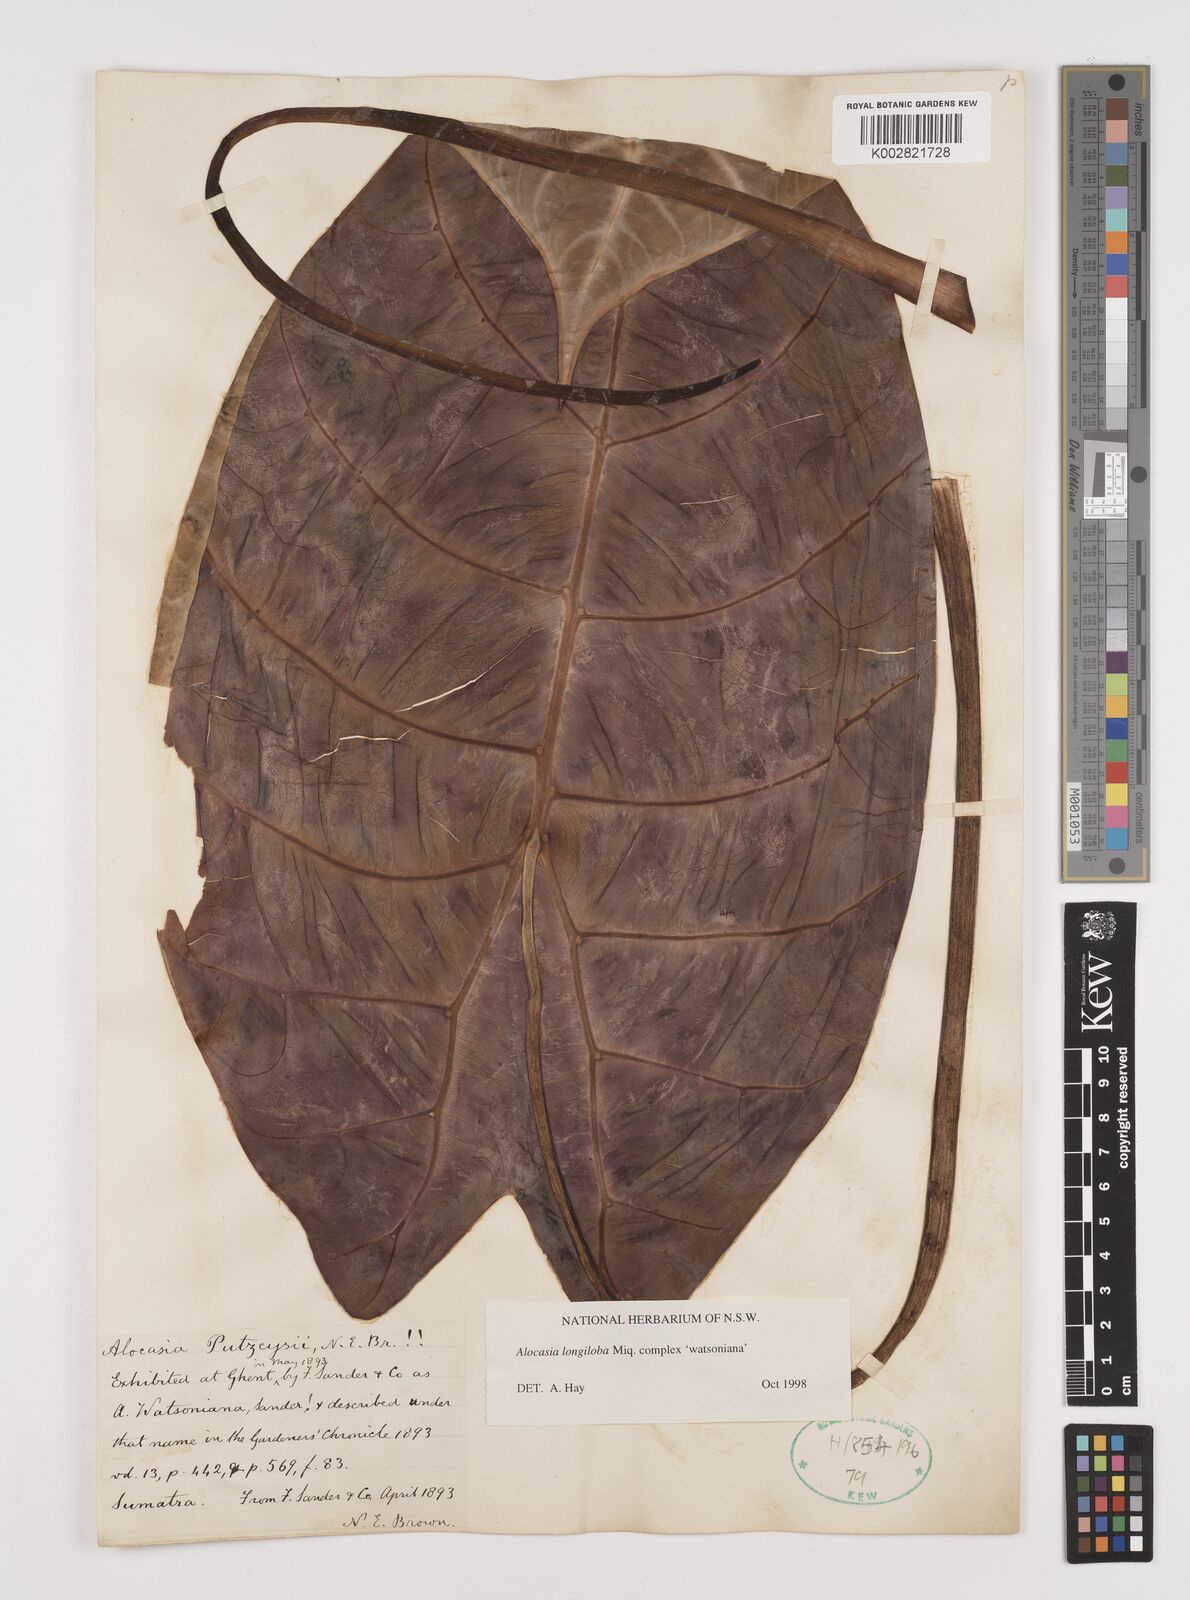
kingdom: Plantae
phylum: Tracheophyta
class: Liliopsida
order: Alismatales
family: Araceae
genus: Alocasia
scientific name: Alocasia longiloba
